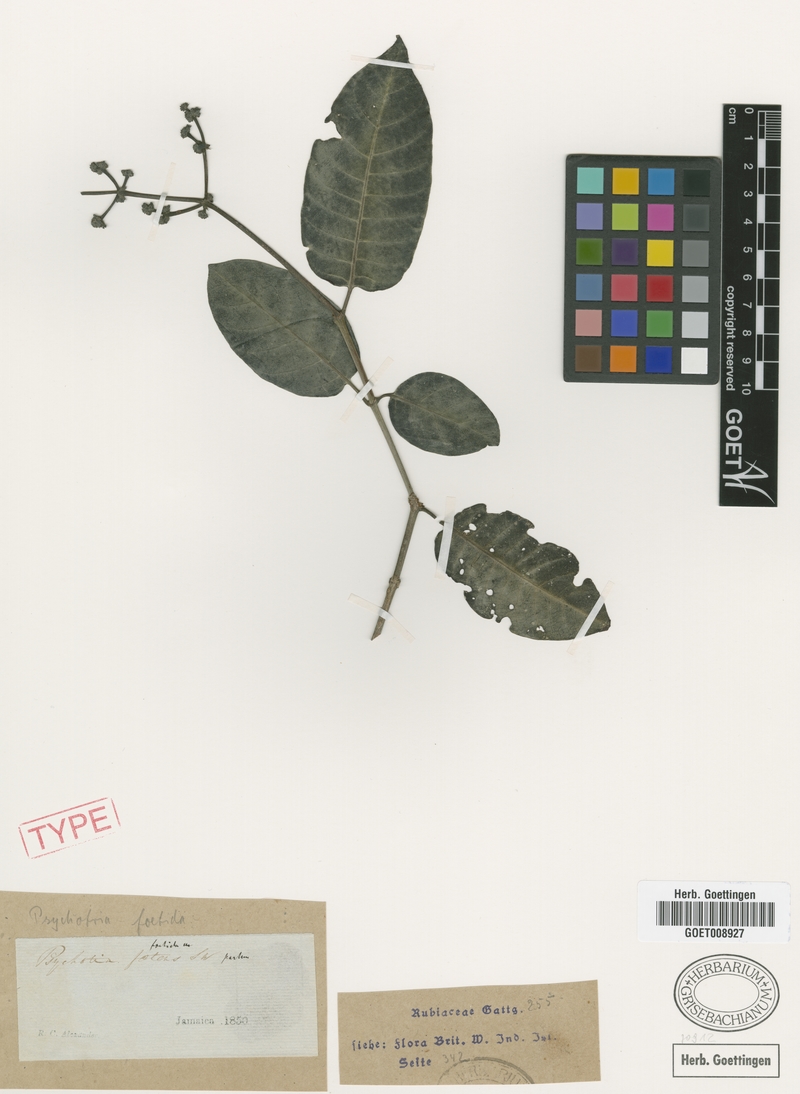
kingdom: Plantae
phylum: Tracheophyta
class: Magnoliopsida
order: Gentianales
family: Rubiaceae
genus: Psychotria
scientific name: Psychotria foetida
